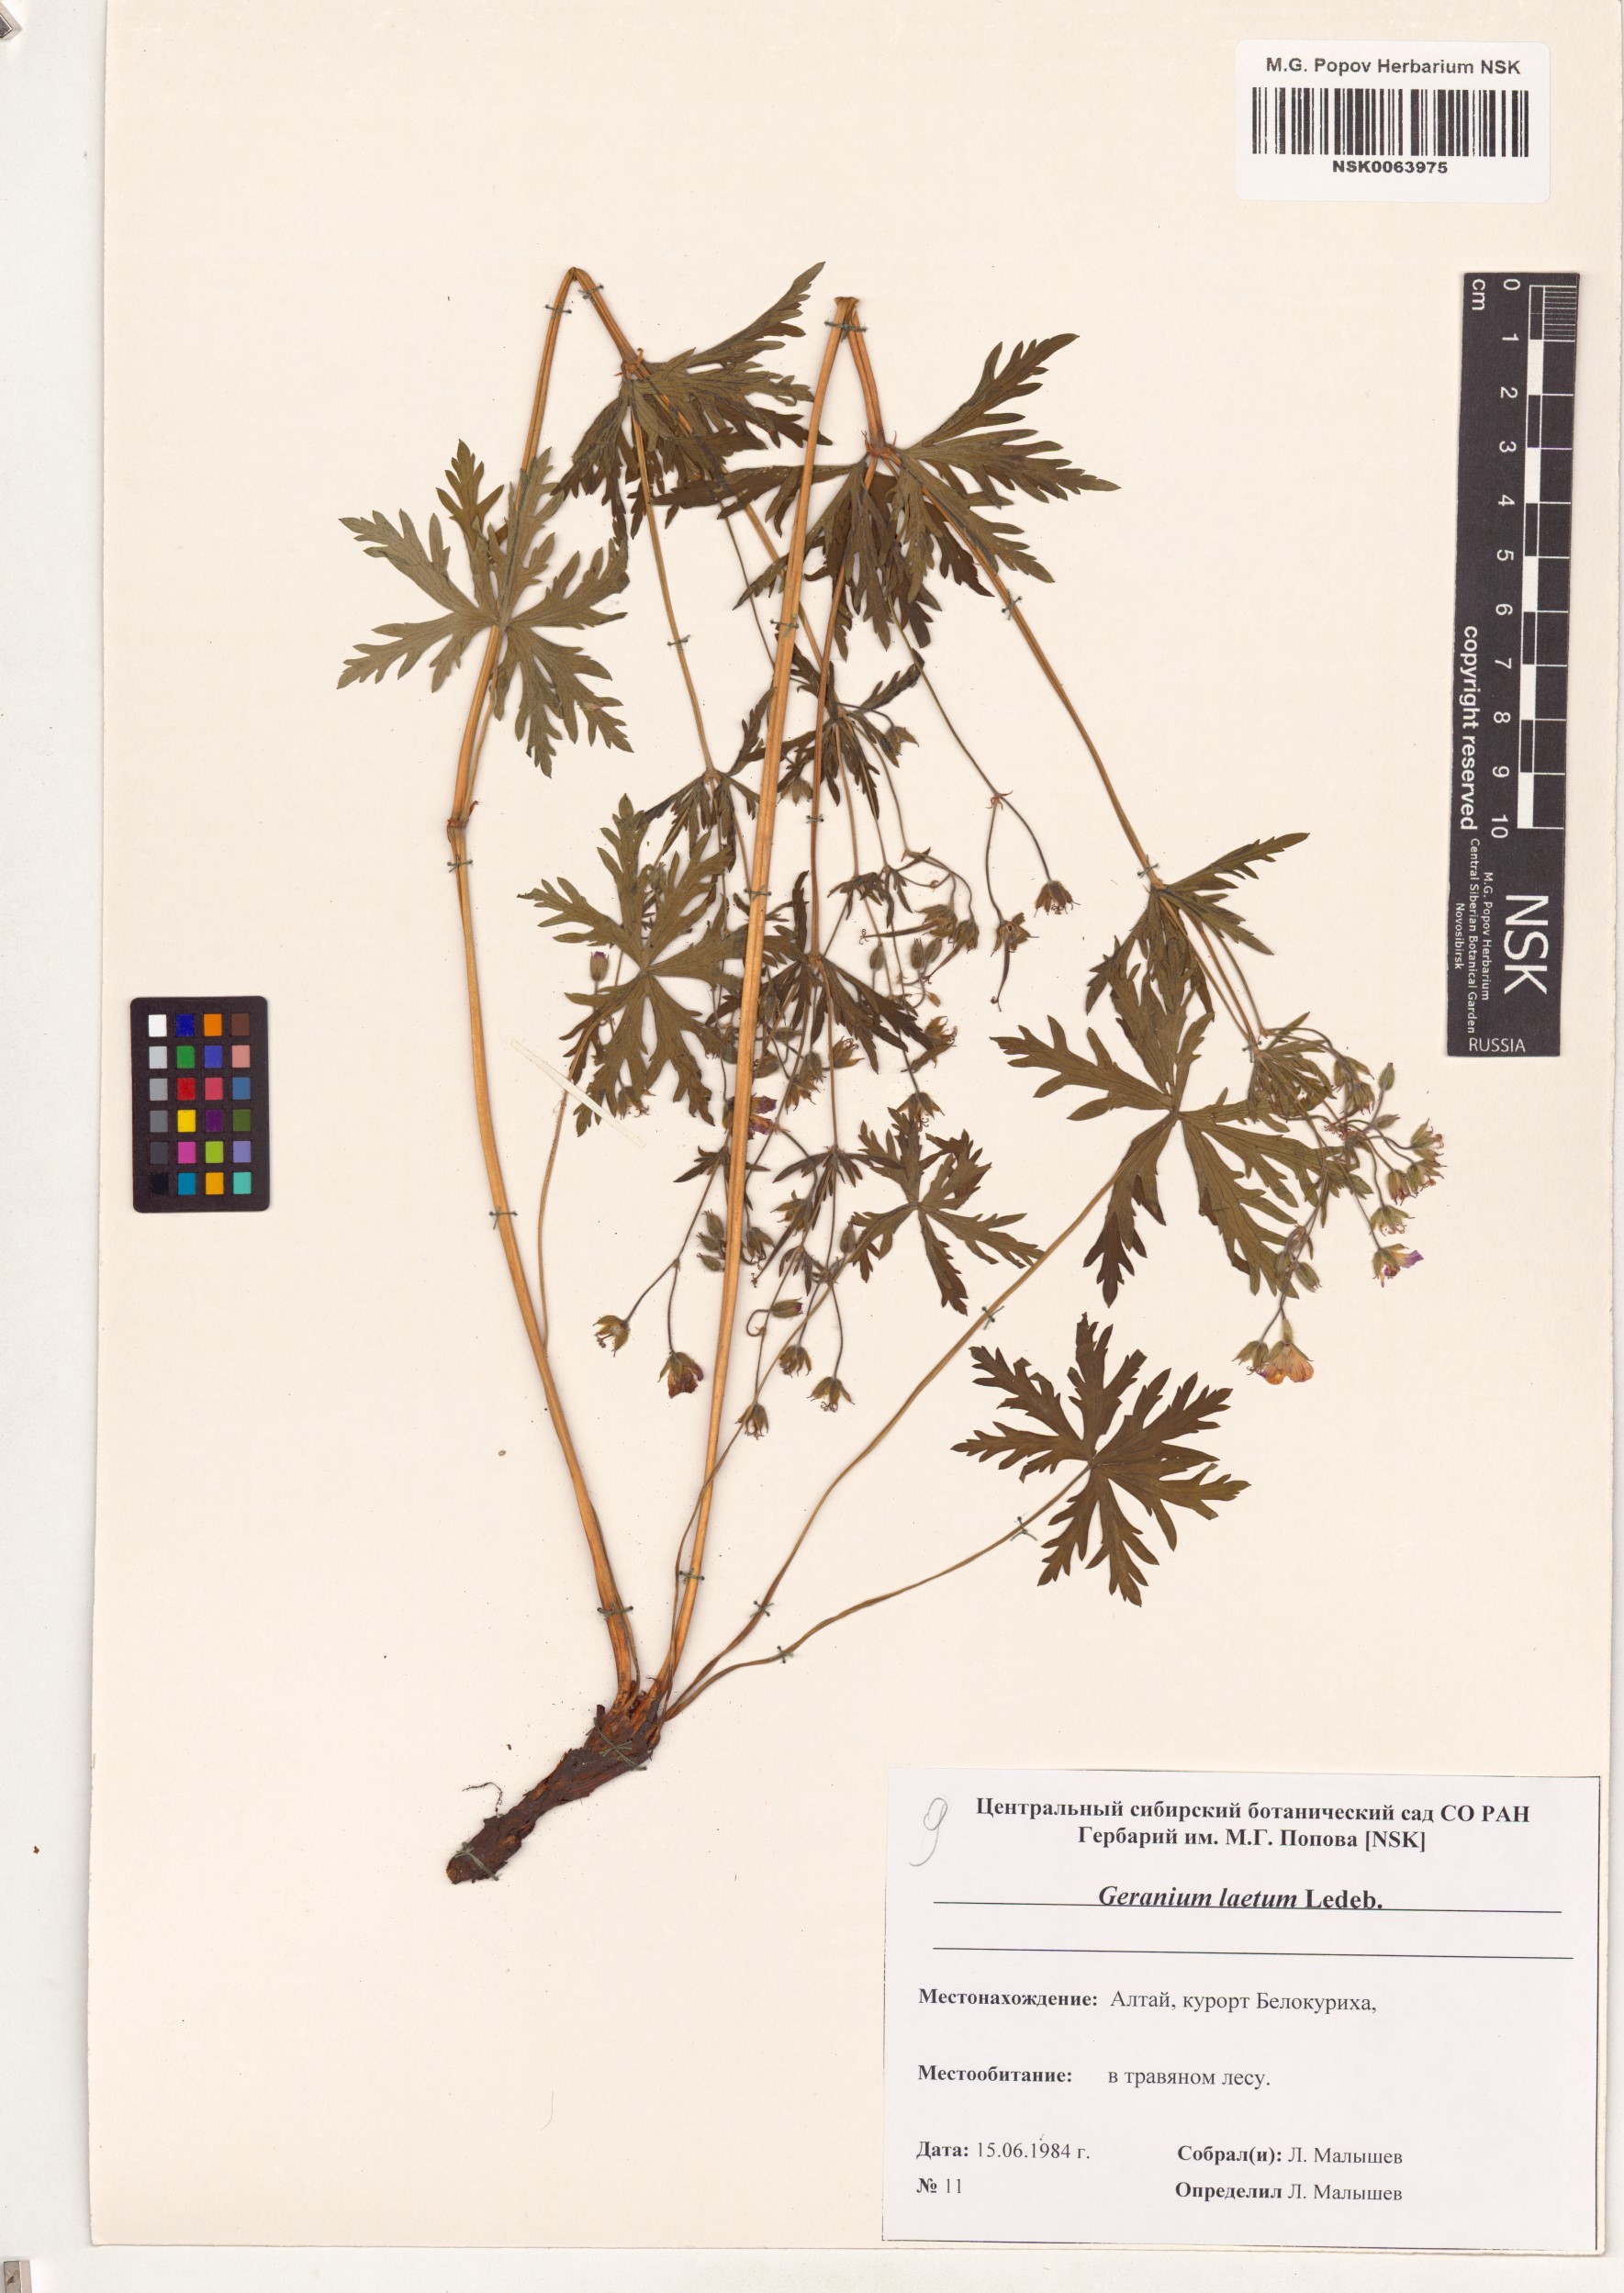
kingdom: Plantae
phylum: Tracheophyta
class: Magnoliopsida
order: Geraniales
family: Geraniaceae
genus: Geranium
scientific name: Geranium pseudosibiricum
